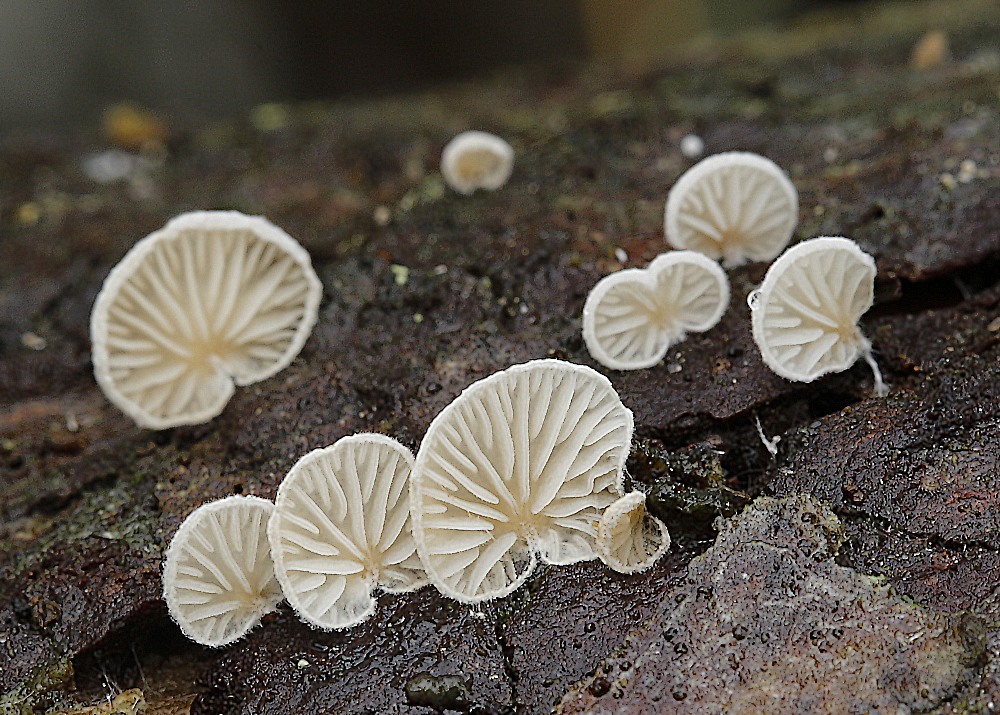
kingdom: Fungi
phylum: Basidiomycota
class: Agaricomycetes
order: Agaricales
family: Entolomataceae
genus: Clitopilus
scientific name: Clitopilus hobsonii
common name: Miller's oysterling
